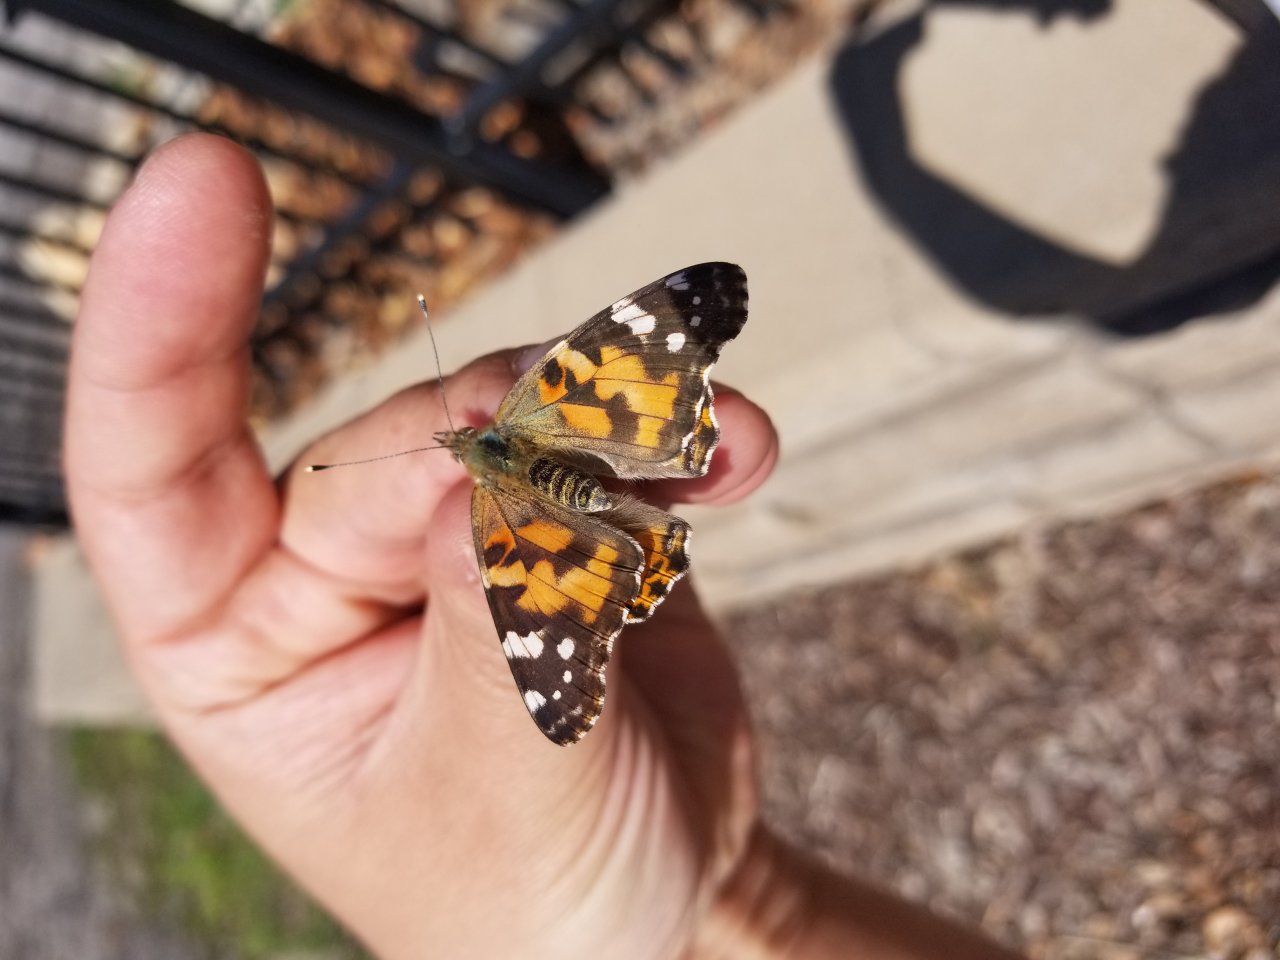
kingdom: Animalia
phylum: Arthropoda
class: Insecta
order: Lepidoptera
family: Nymphalidae
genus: Vanessa
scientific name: Vanessa cardui
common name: Painted Lady
